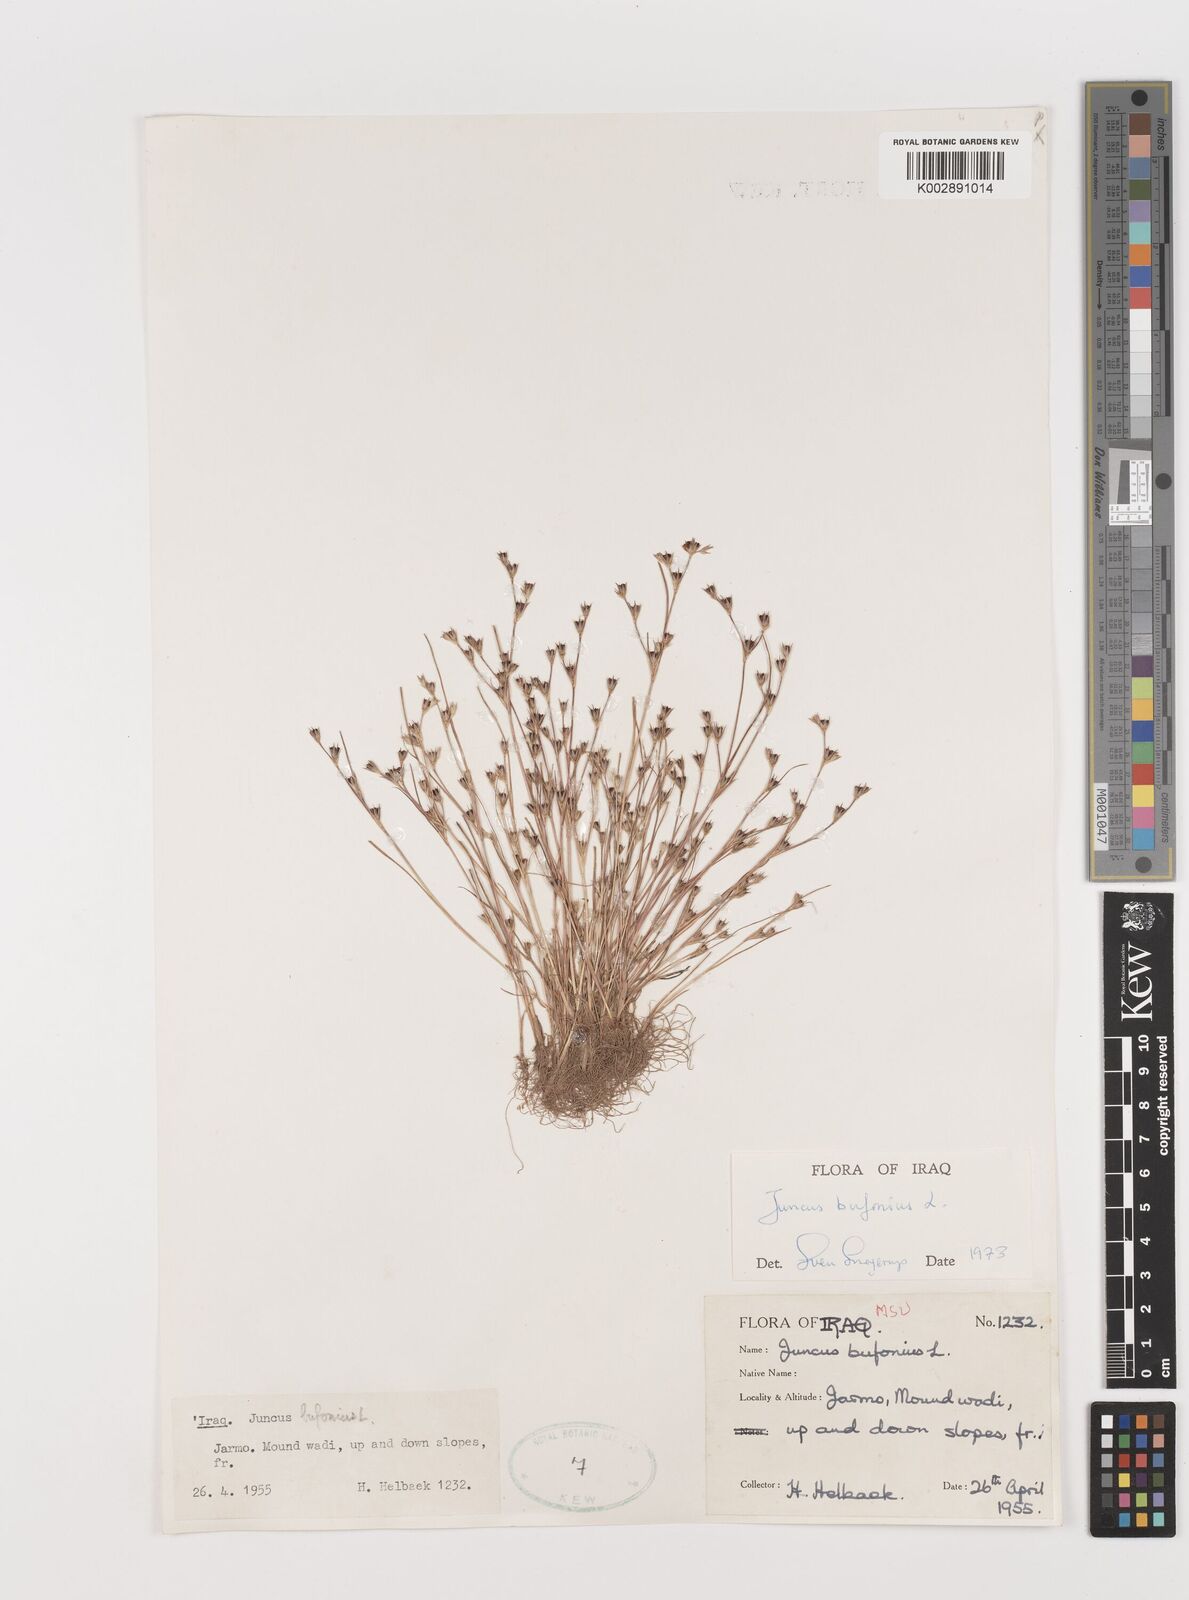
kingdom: Plantae
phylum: Tracheophyta
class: Liliopsida
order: Poales
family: Juncaceae
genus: Juncus
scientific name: Juncus bufonius
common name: Toad rush
